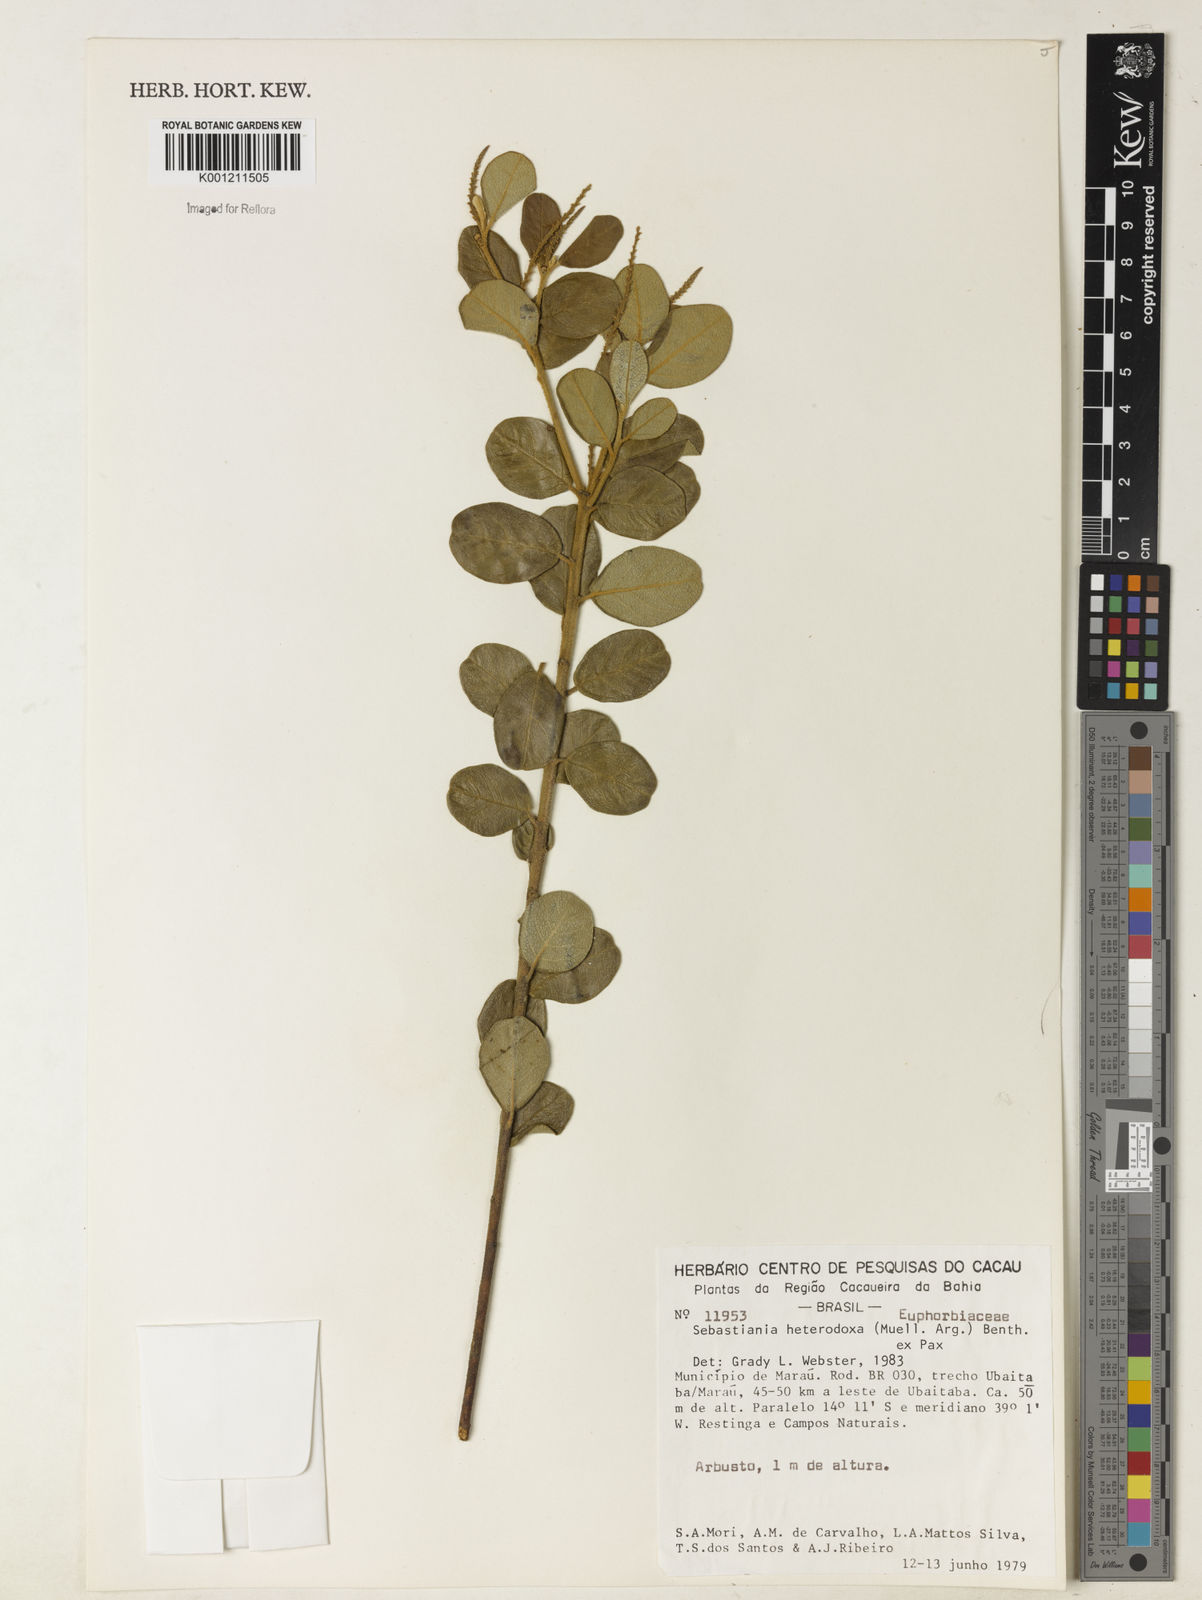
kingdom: Plantae
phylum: Tracheophyta
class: Magnoliopsida
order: Malpighiales
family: Euphorbiaceae
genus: Microstachys
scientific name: Microstachys
